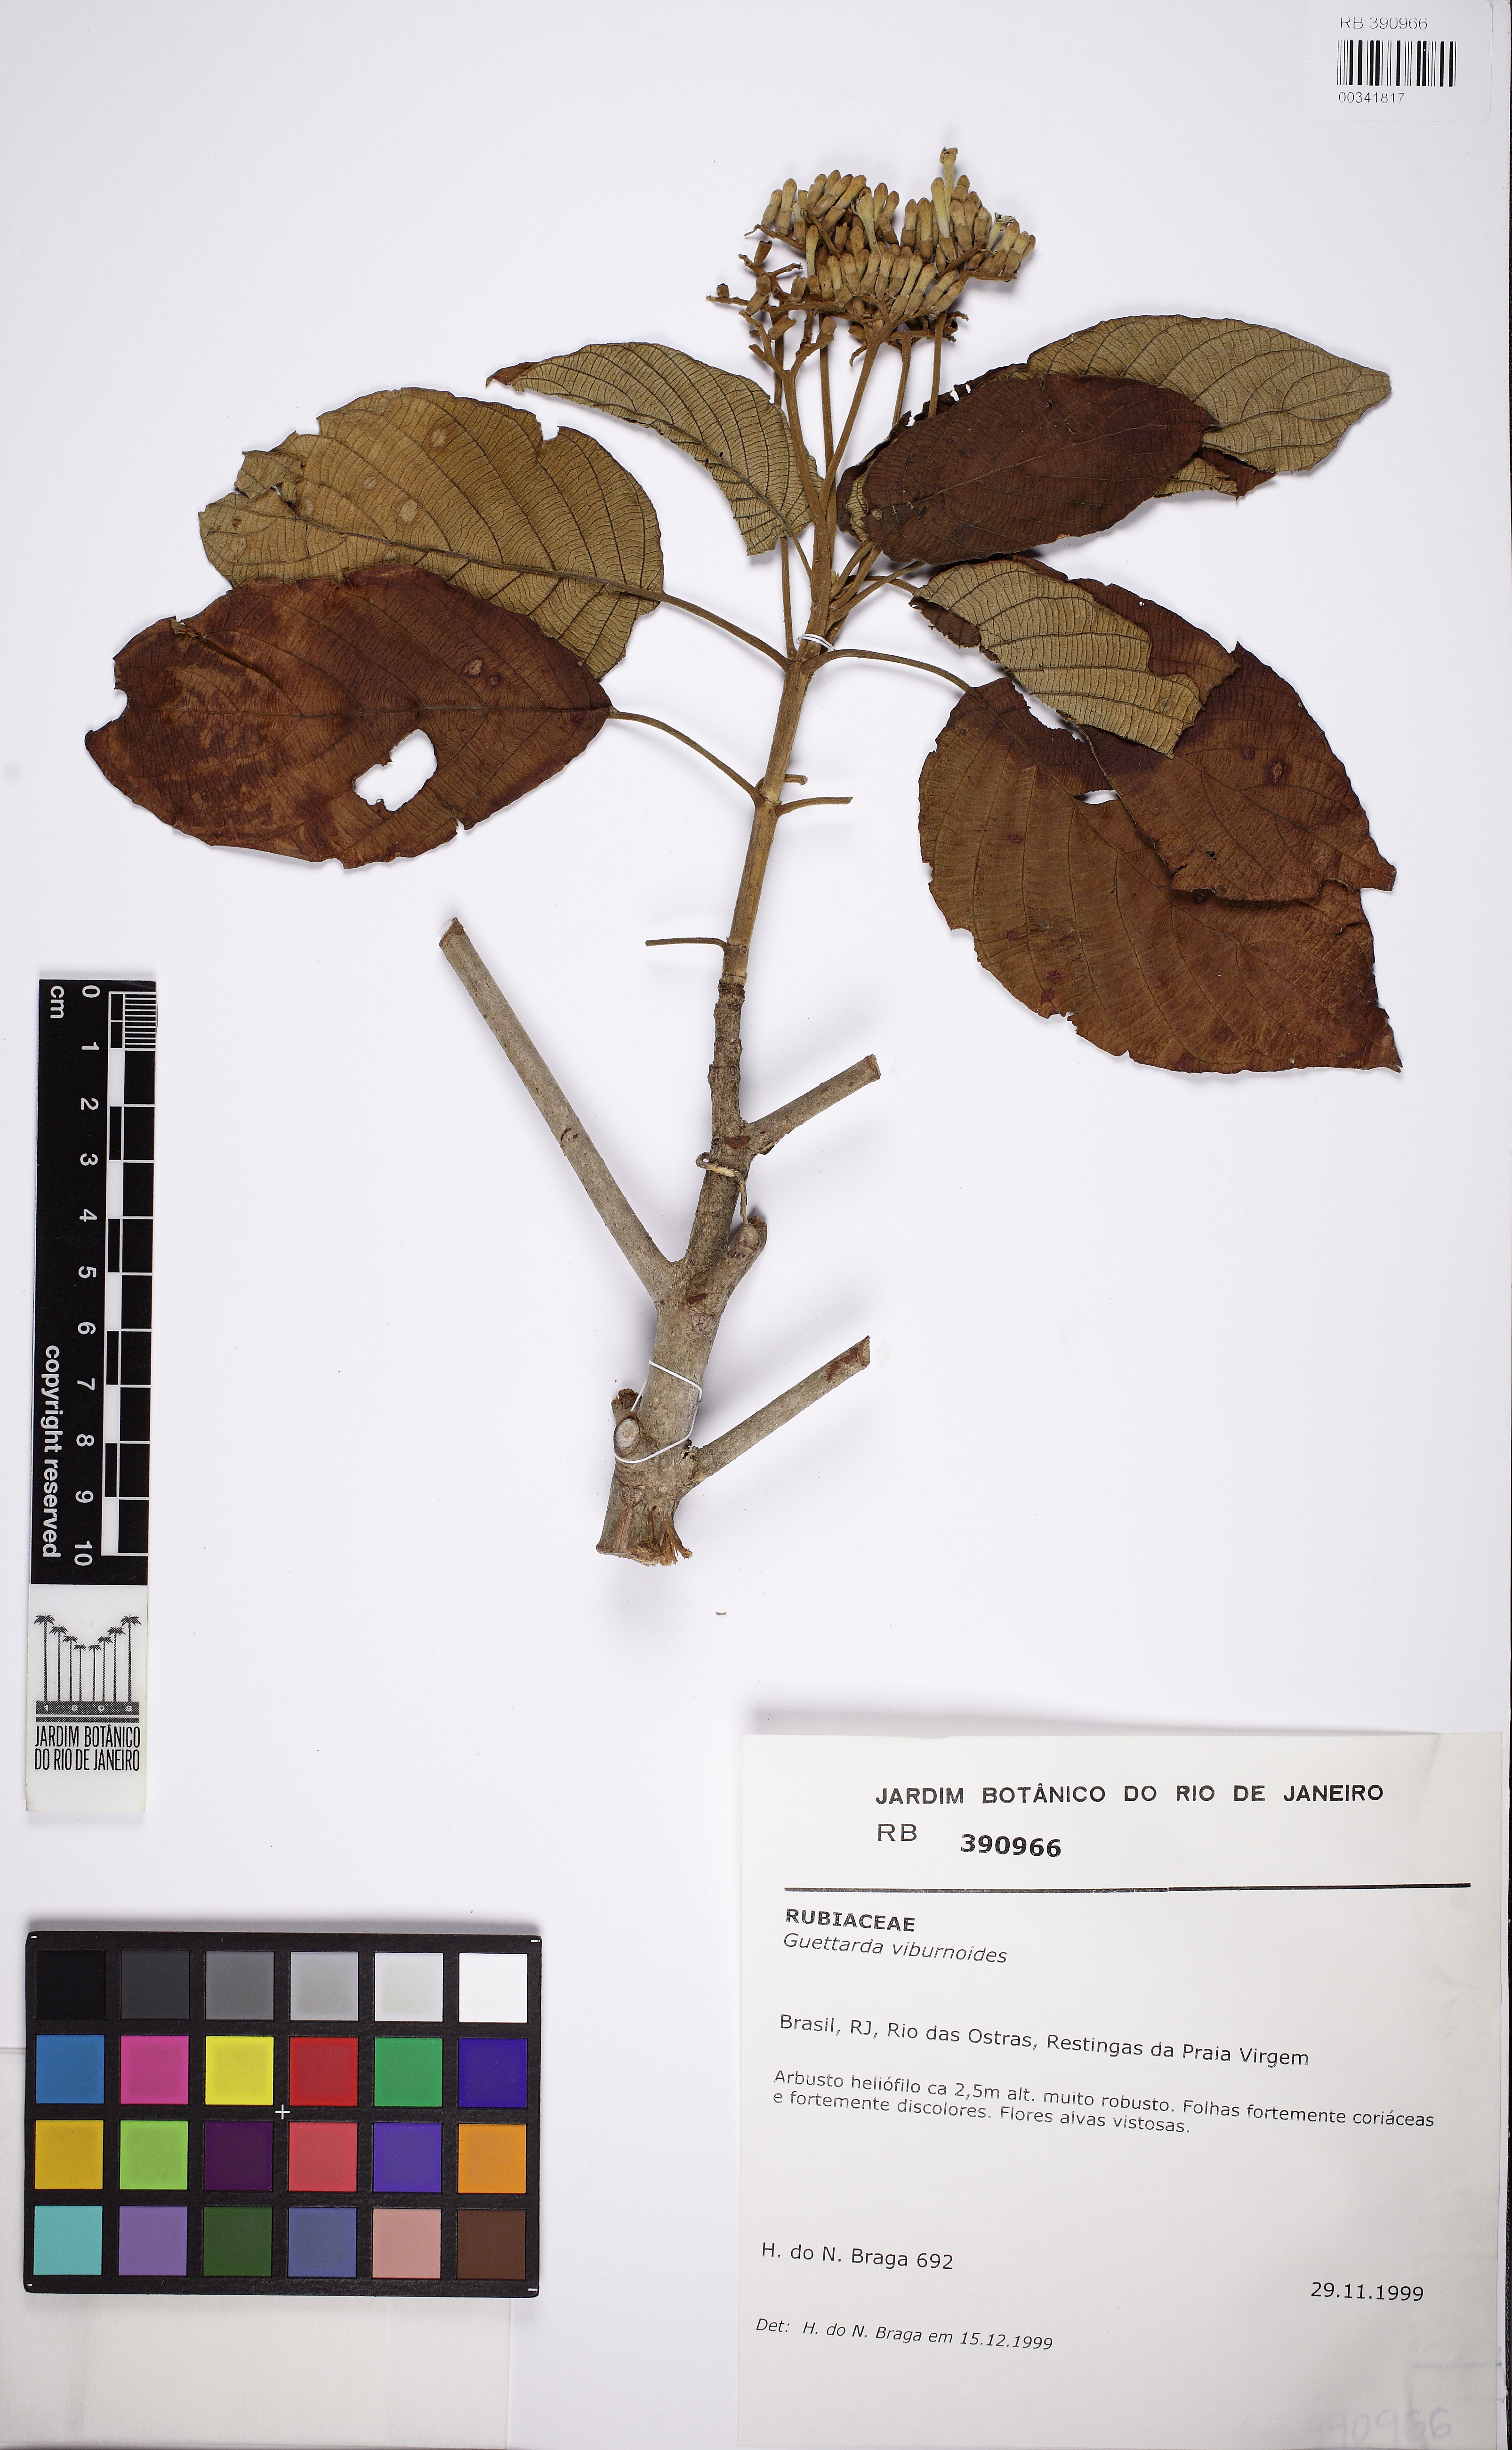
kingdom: Plantae
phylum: Tracheophyta
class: Magnoliopsida
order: Gentianales
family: Rubiaceae
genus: Guettarda
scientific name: Guettarda viburnoides
